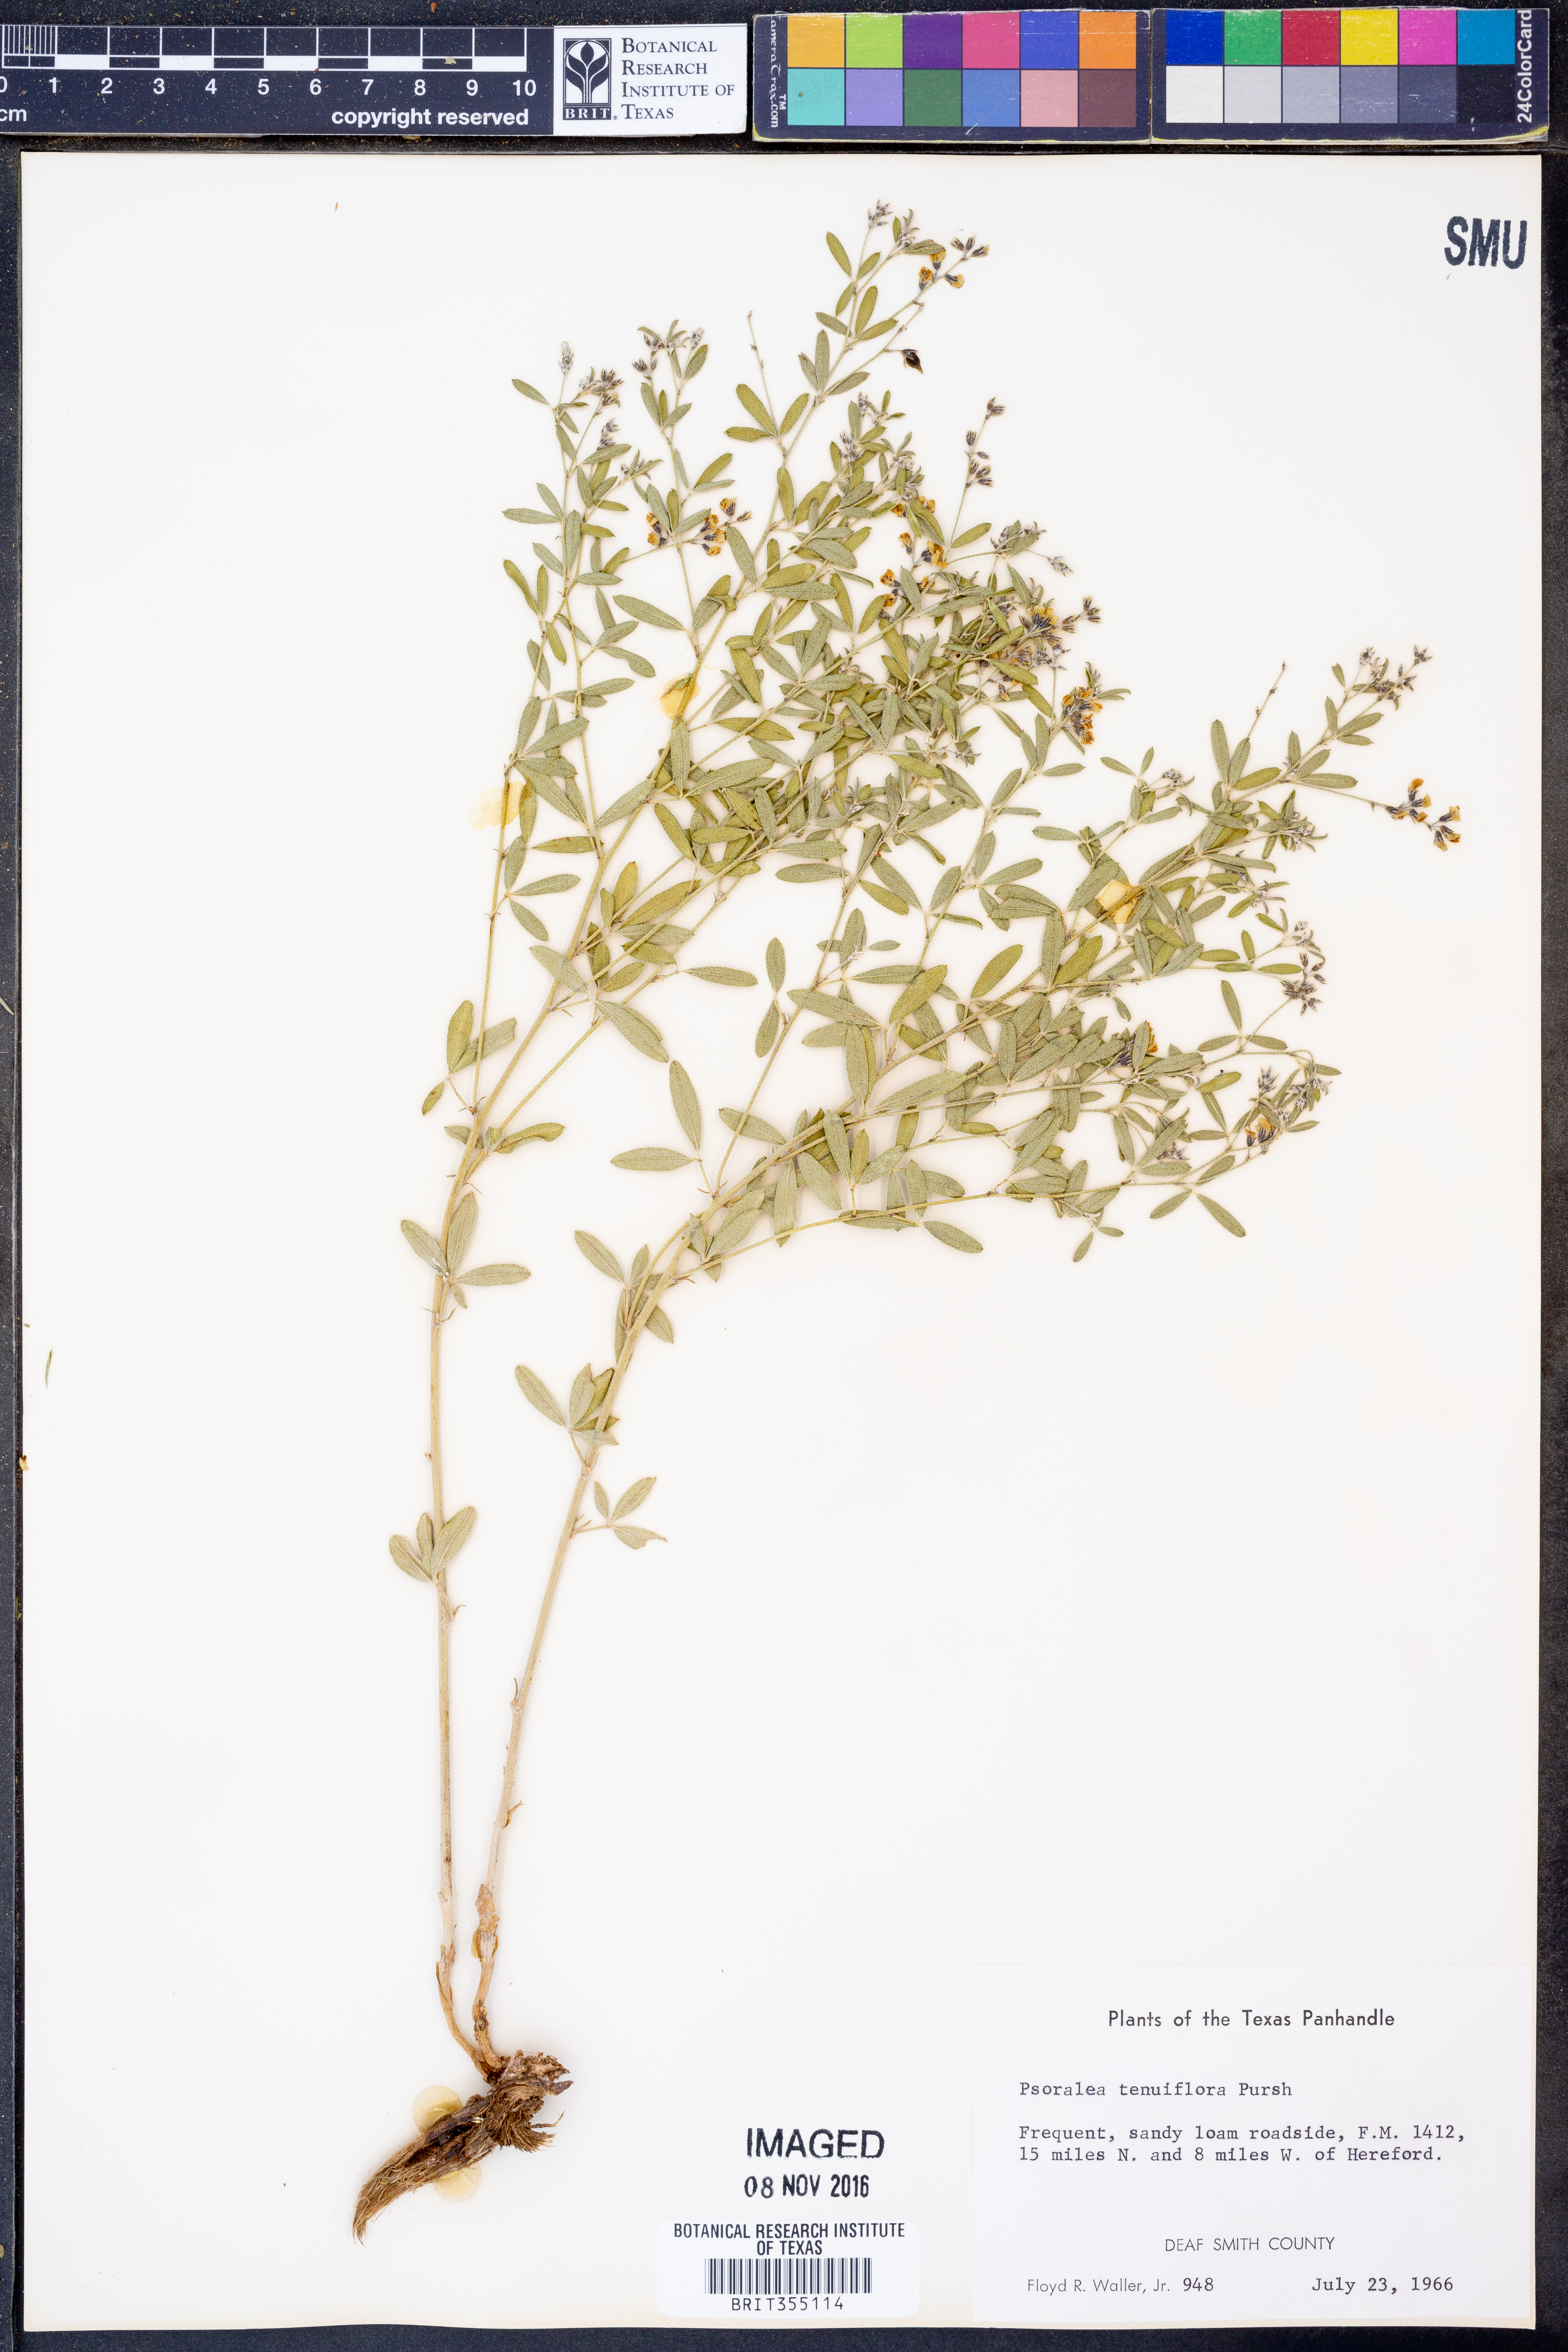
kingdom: Plantae
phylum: Tracheophyta
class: Magnoliopsida
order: Fabales
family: Fabaceae
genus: Pediomelum
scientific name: Pediomelum tenuiflorum
